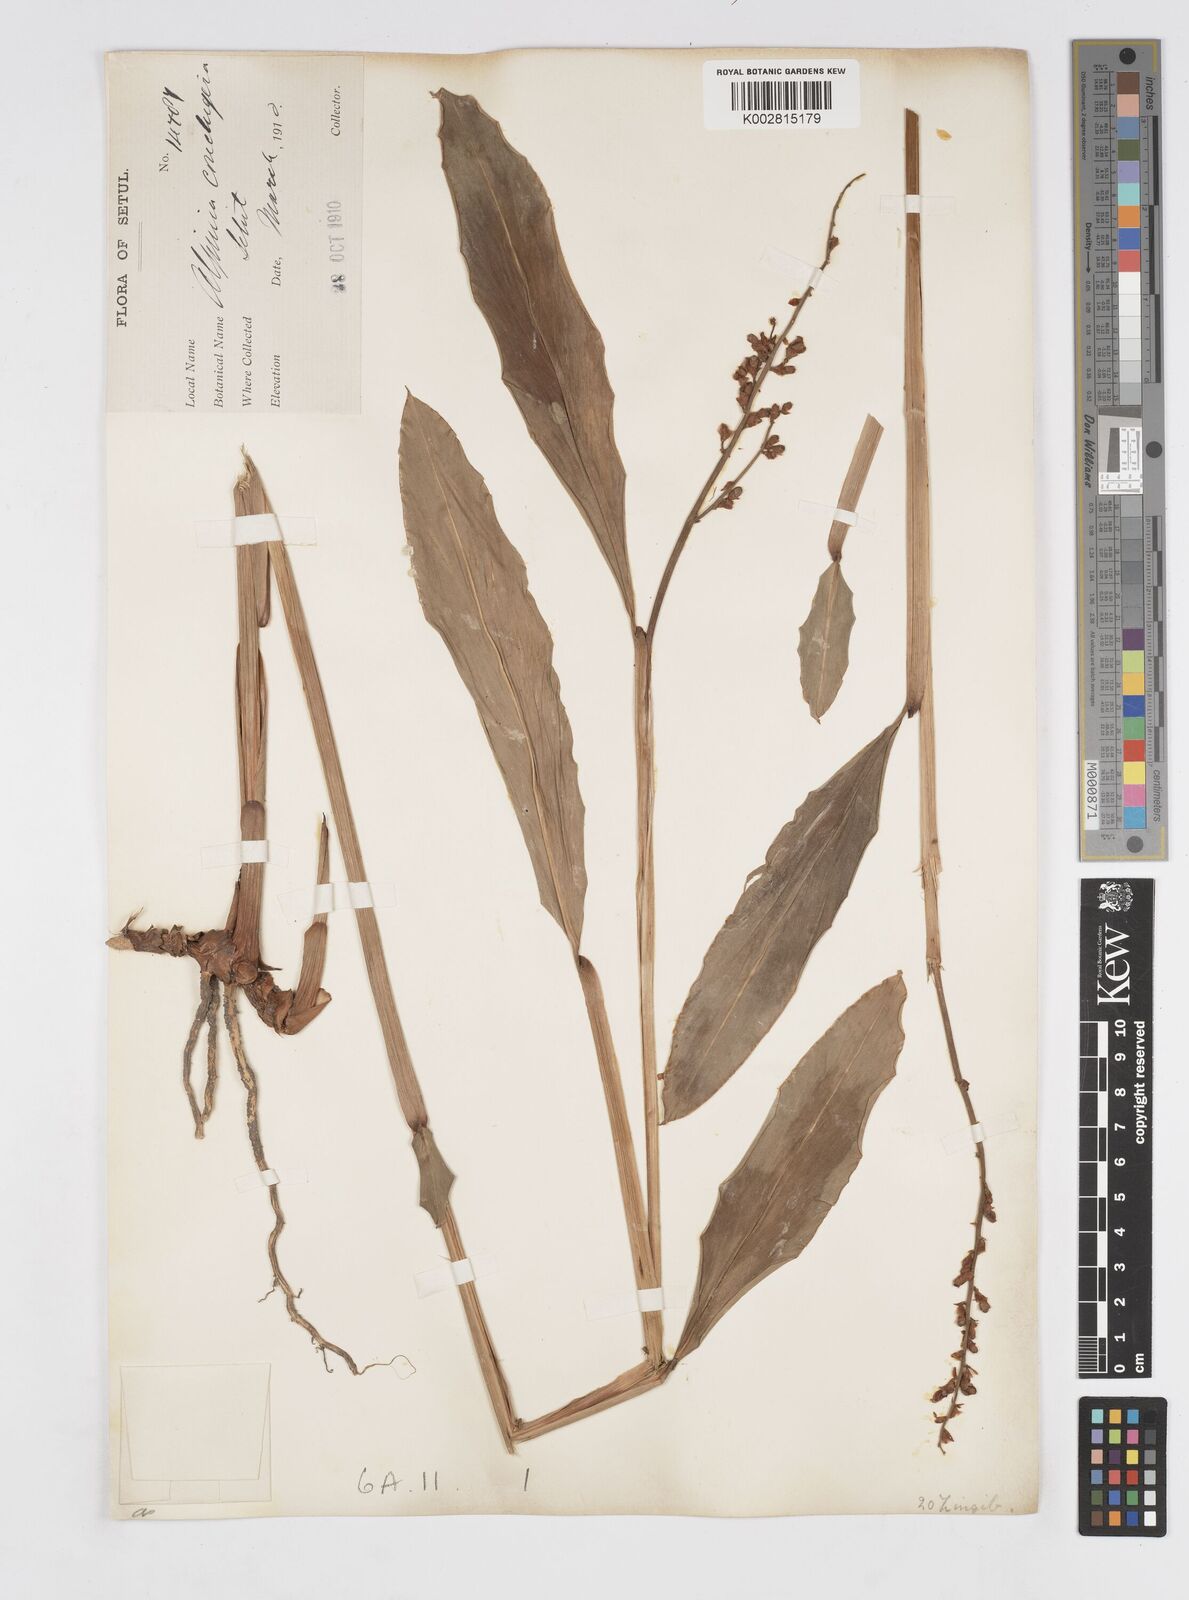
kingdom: Plantae
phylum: Tracheophyta
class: Liliopsida
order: Zingiberales
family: Zingiberaceae
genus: Alpinia
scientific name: Alpinia conchigera
